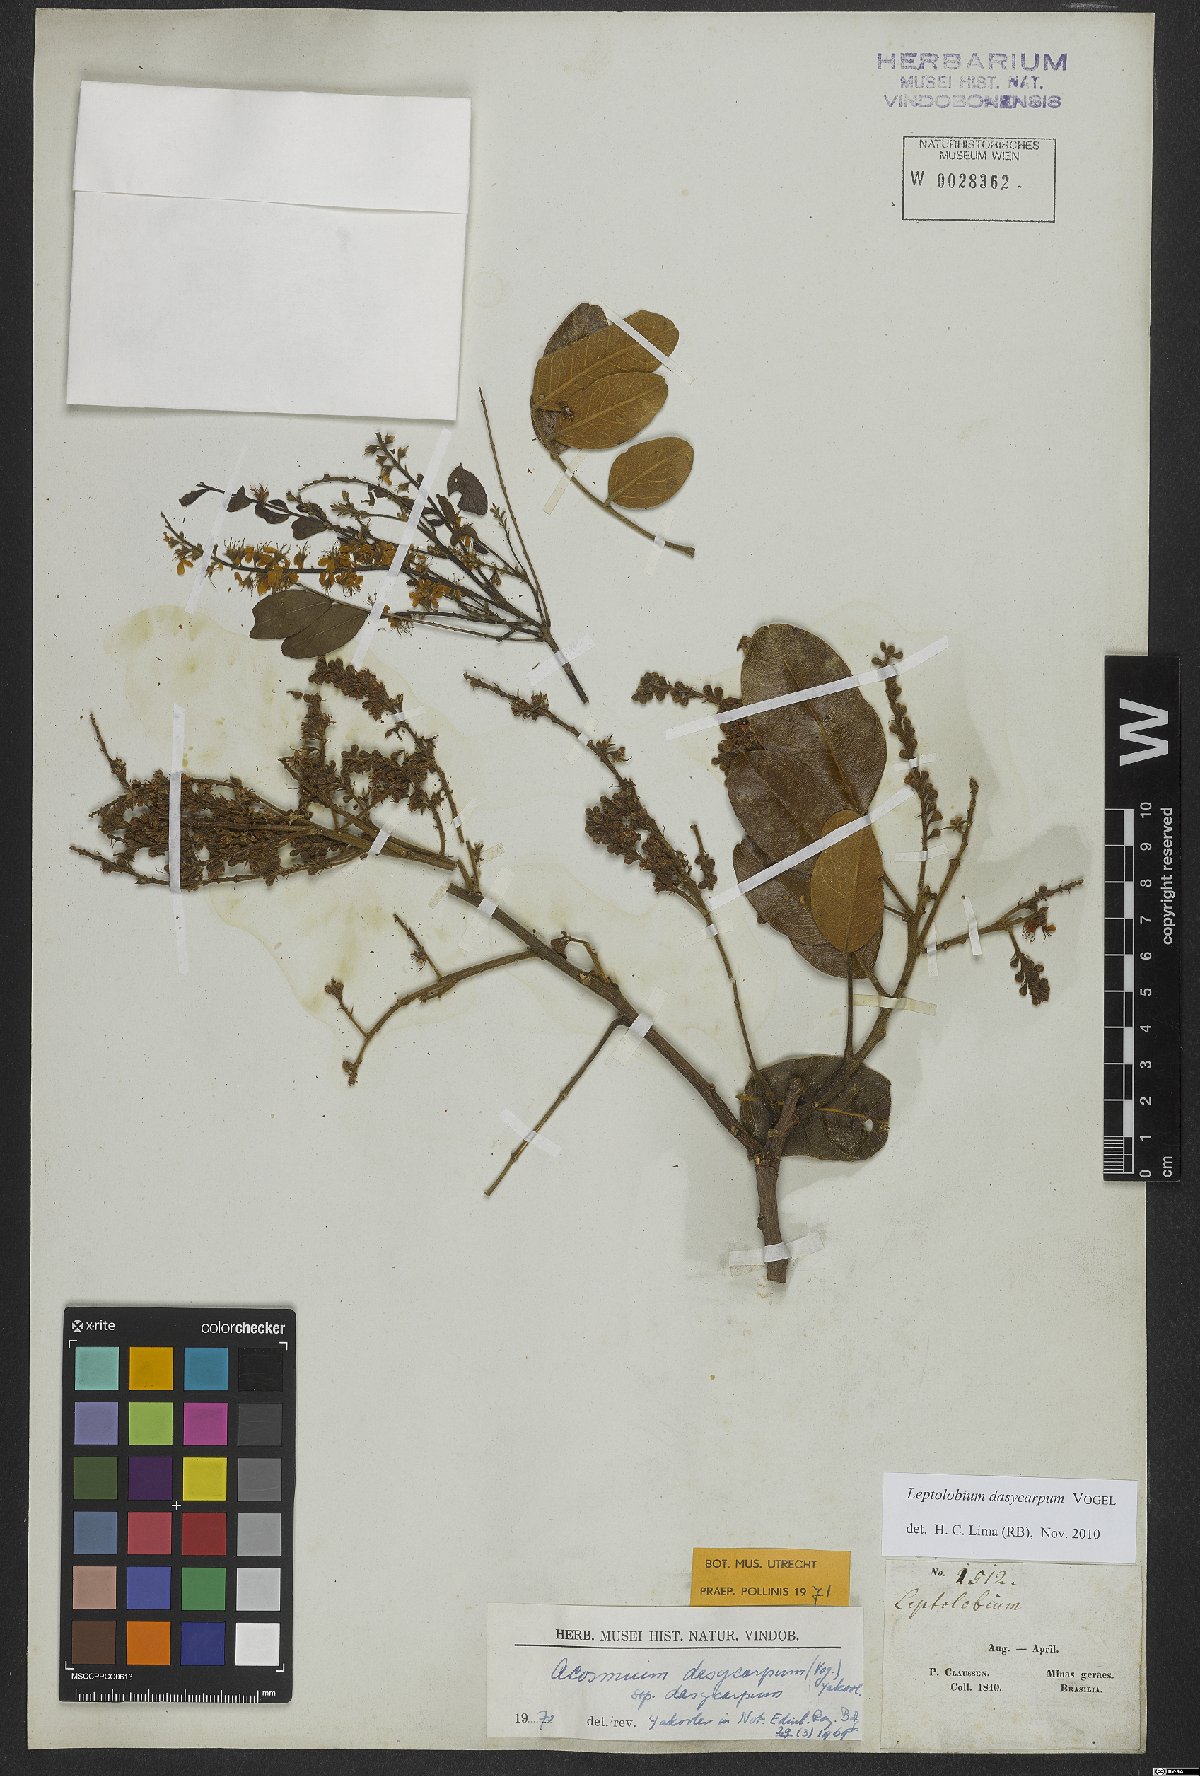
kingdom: Plantae
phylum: Tracheophyta
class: Magnoliopsida
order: Fabales
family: Fabaceae
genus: Leptolobium
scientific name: Leptolobium dasycarpum
